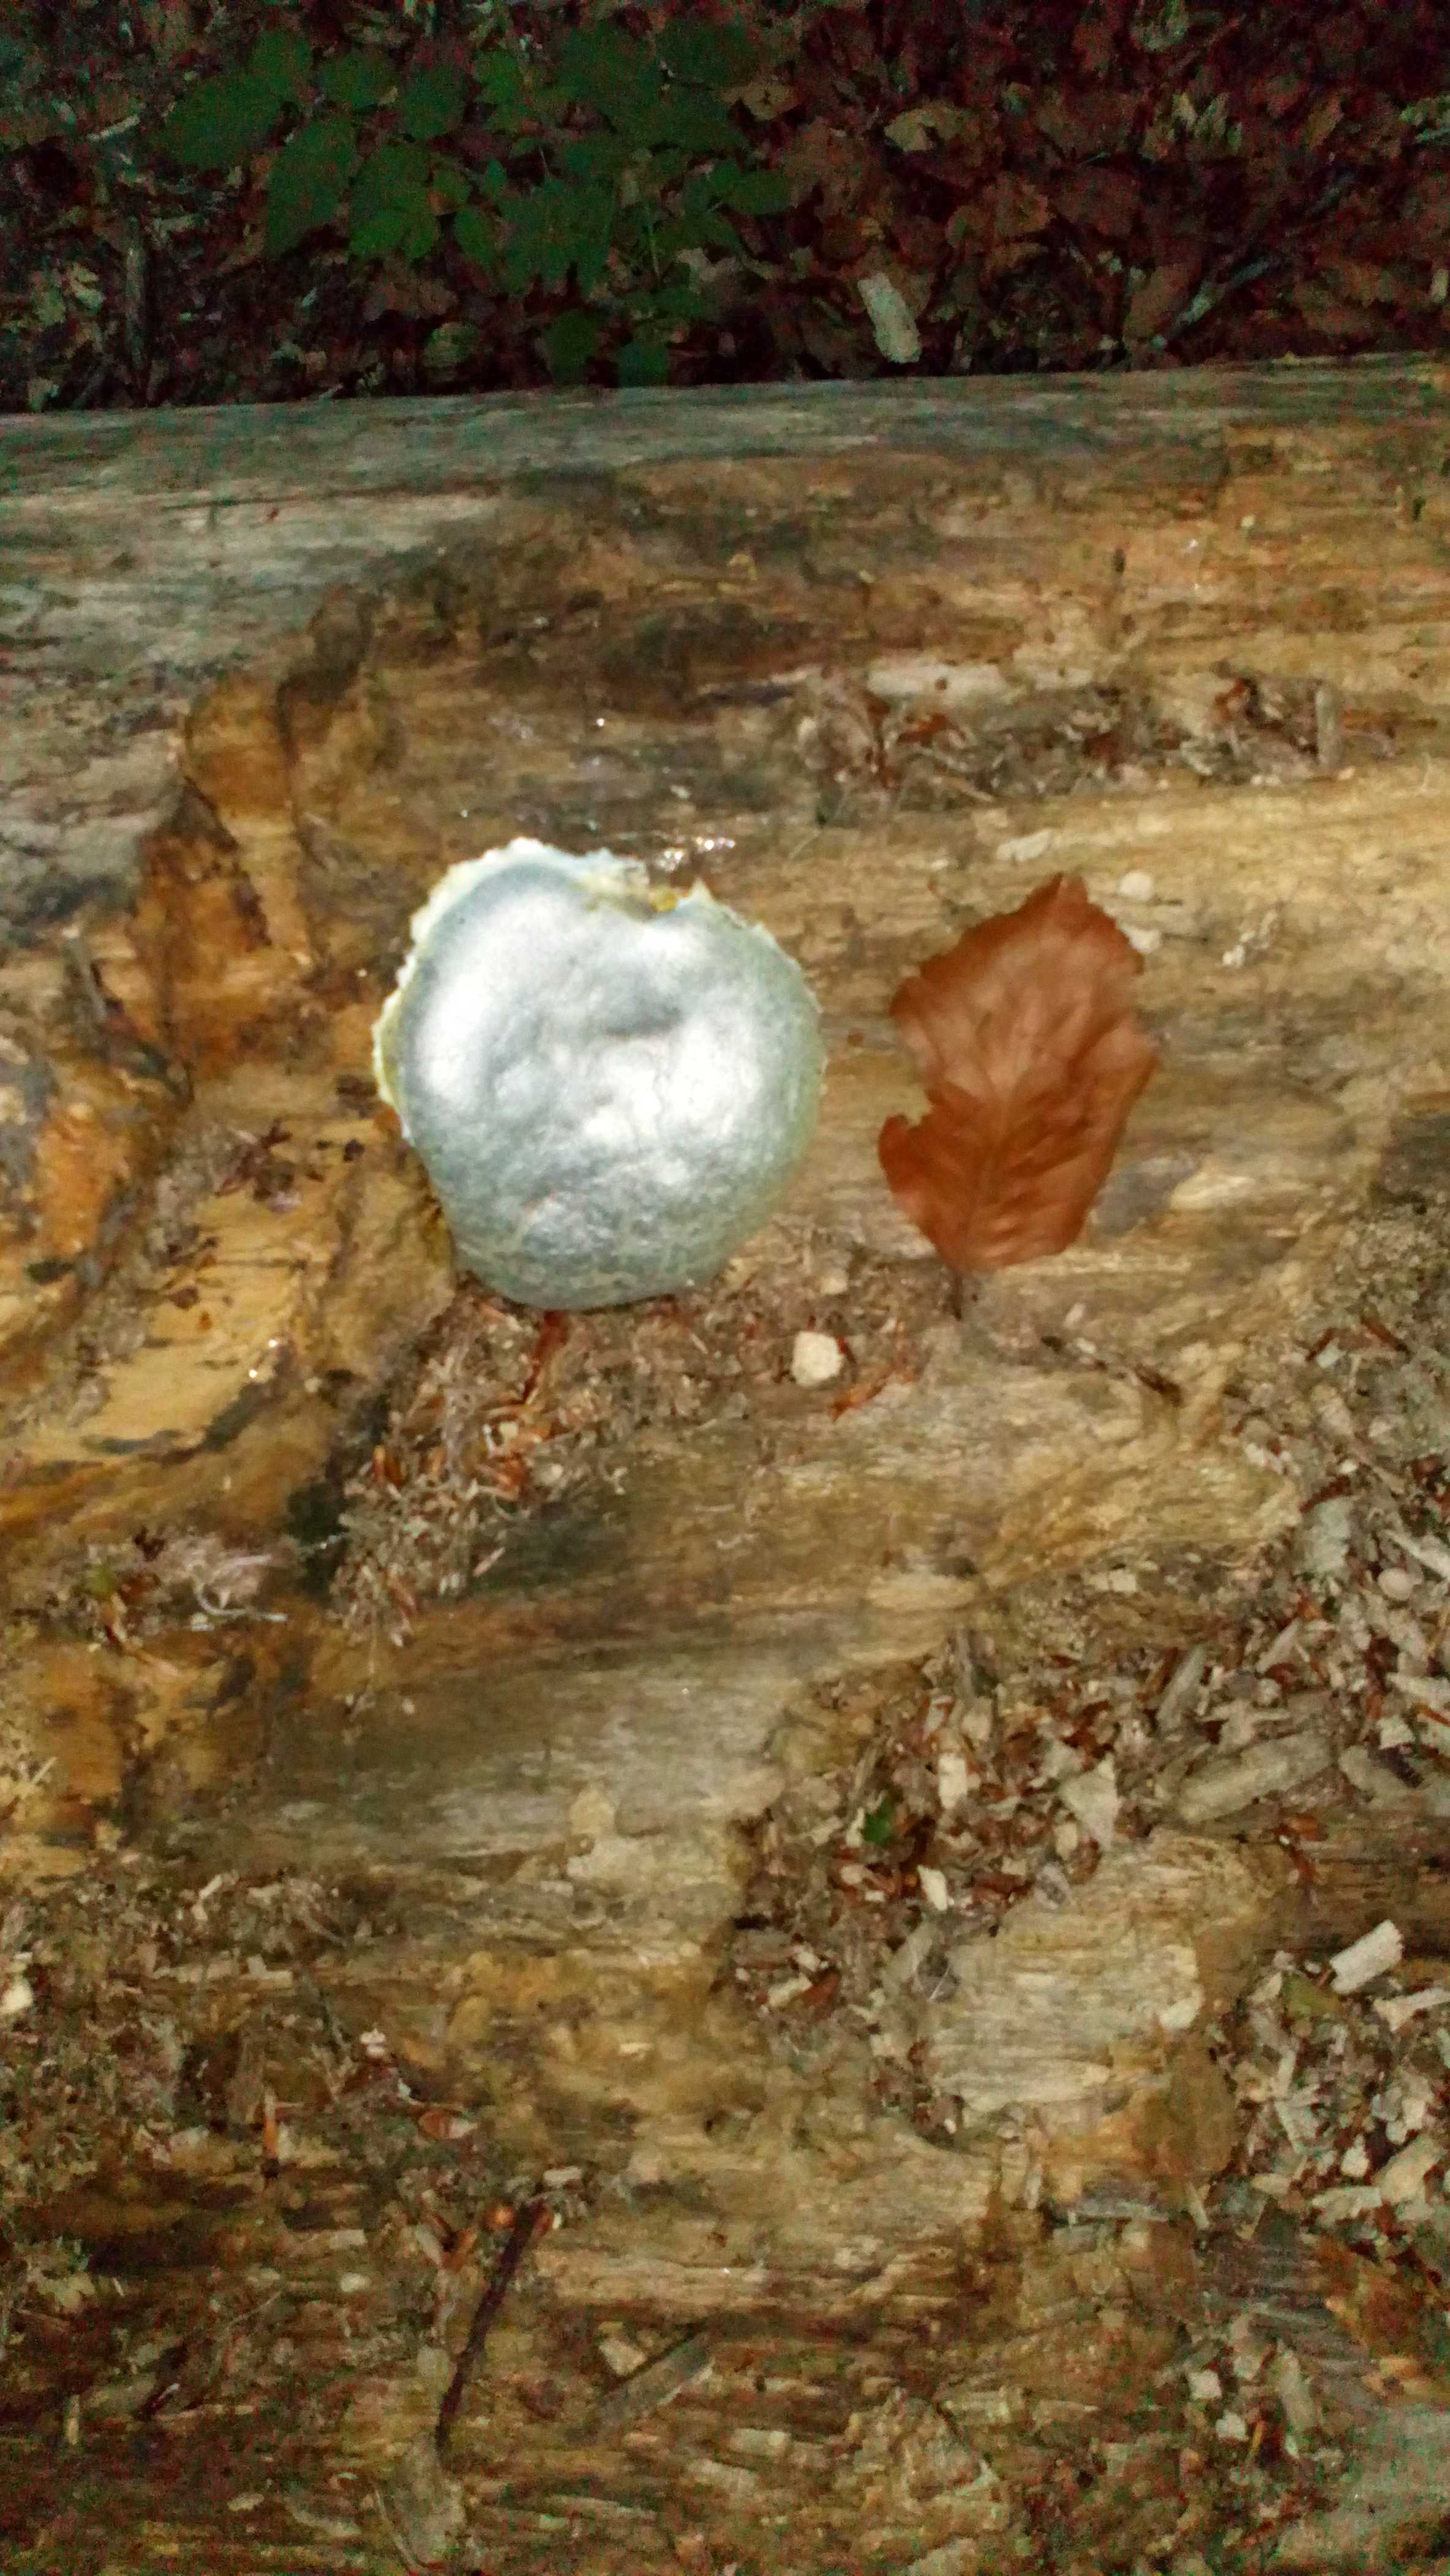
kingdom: Protozoa
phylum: Mycetozoa
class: Myxomycetes
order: Cribrariales
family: Tubiferaceae
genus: Reticularia
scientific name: Reticularia lycoperdon
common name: skinnende støvpude
